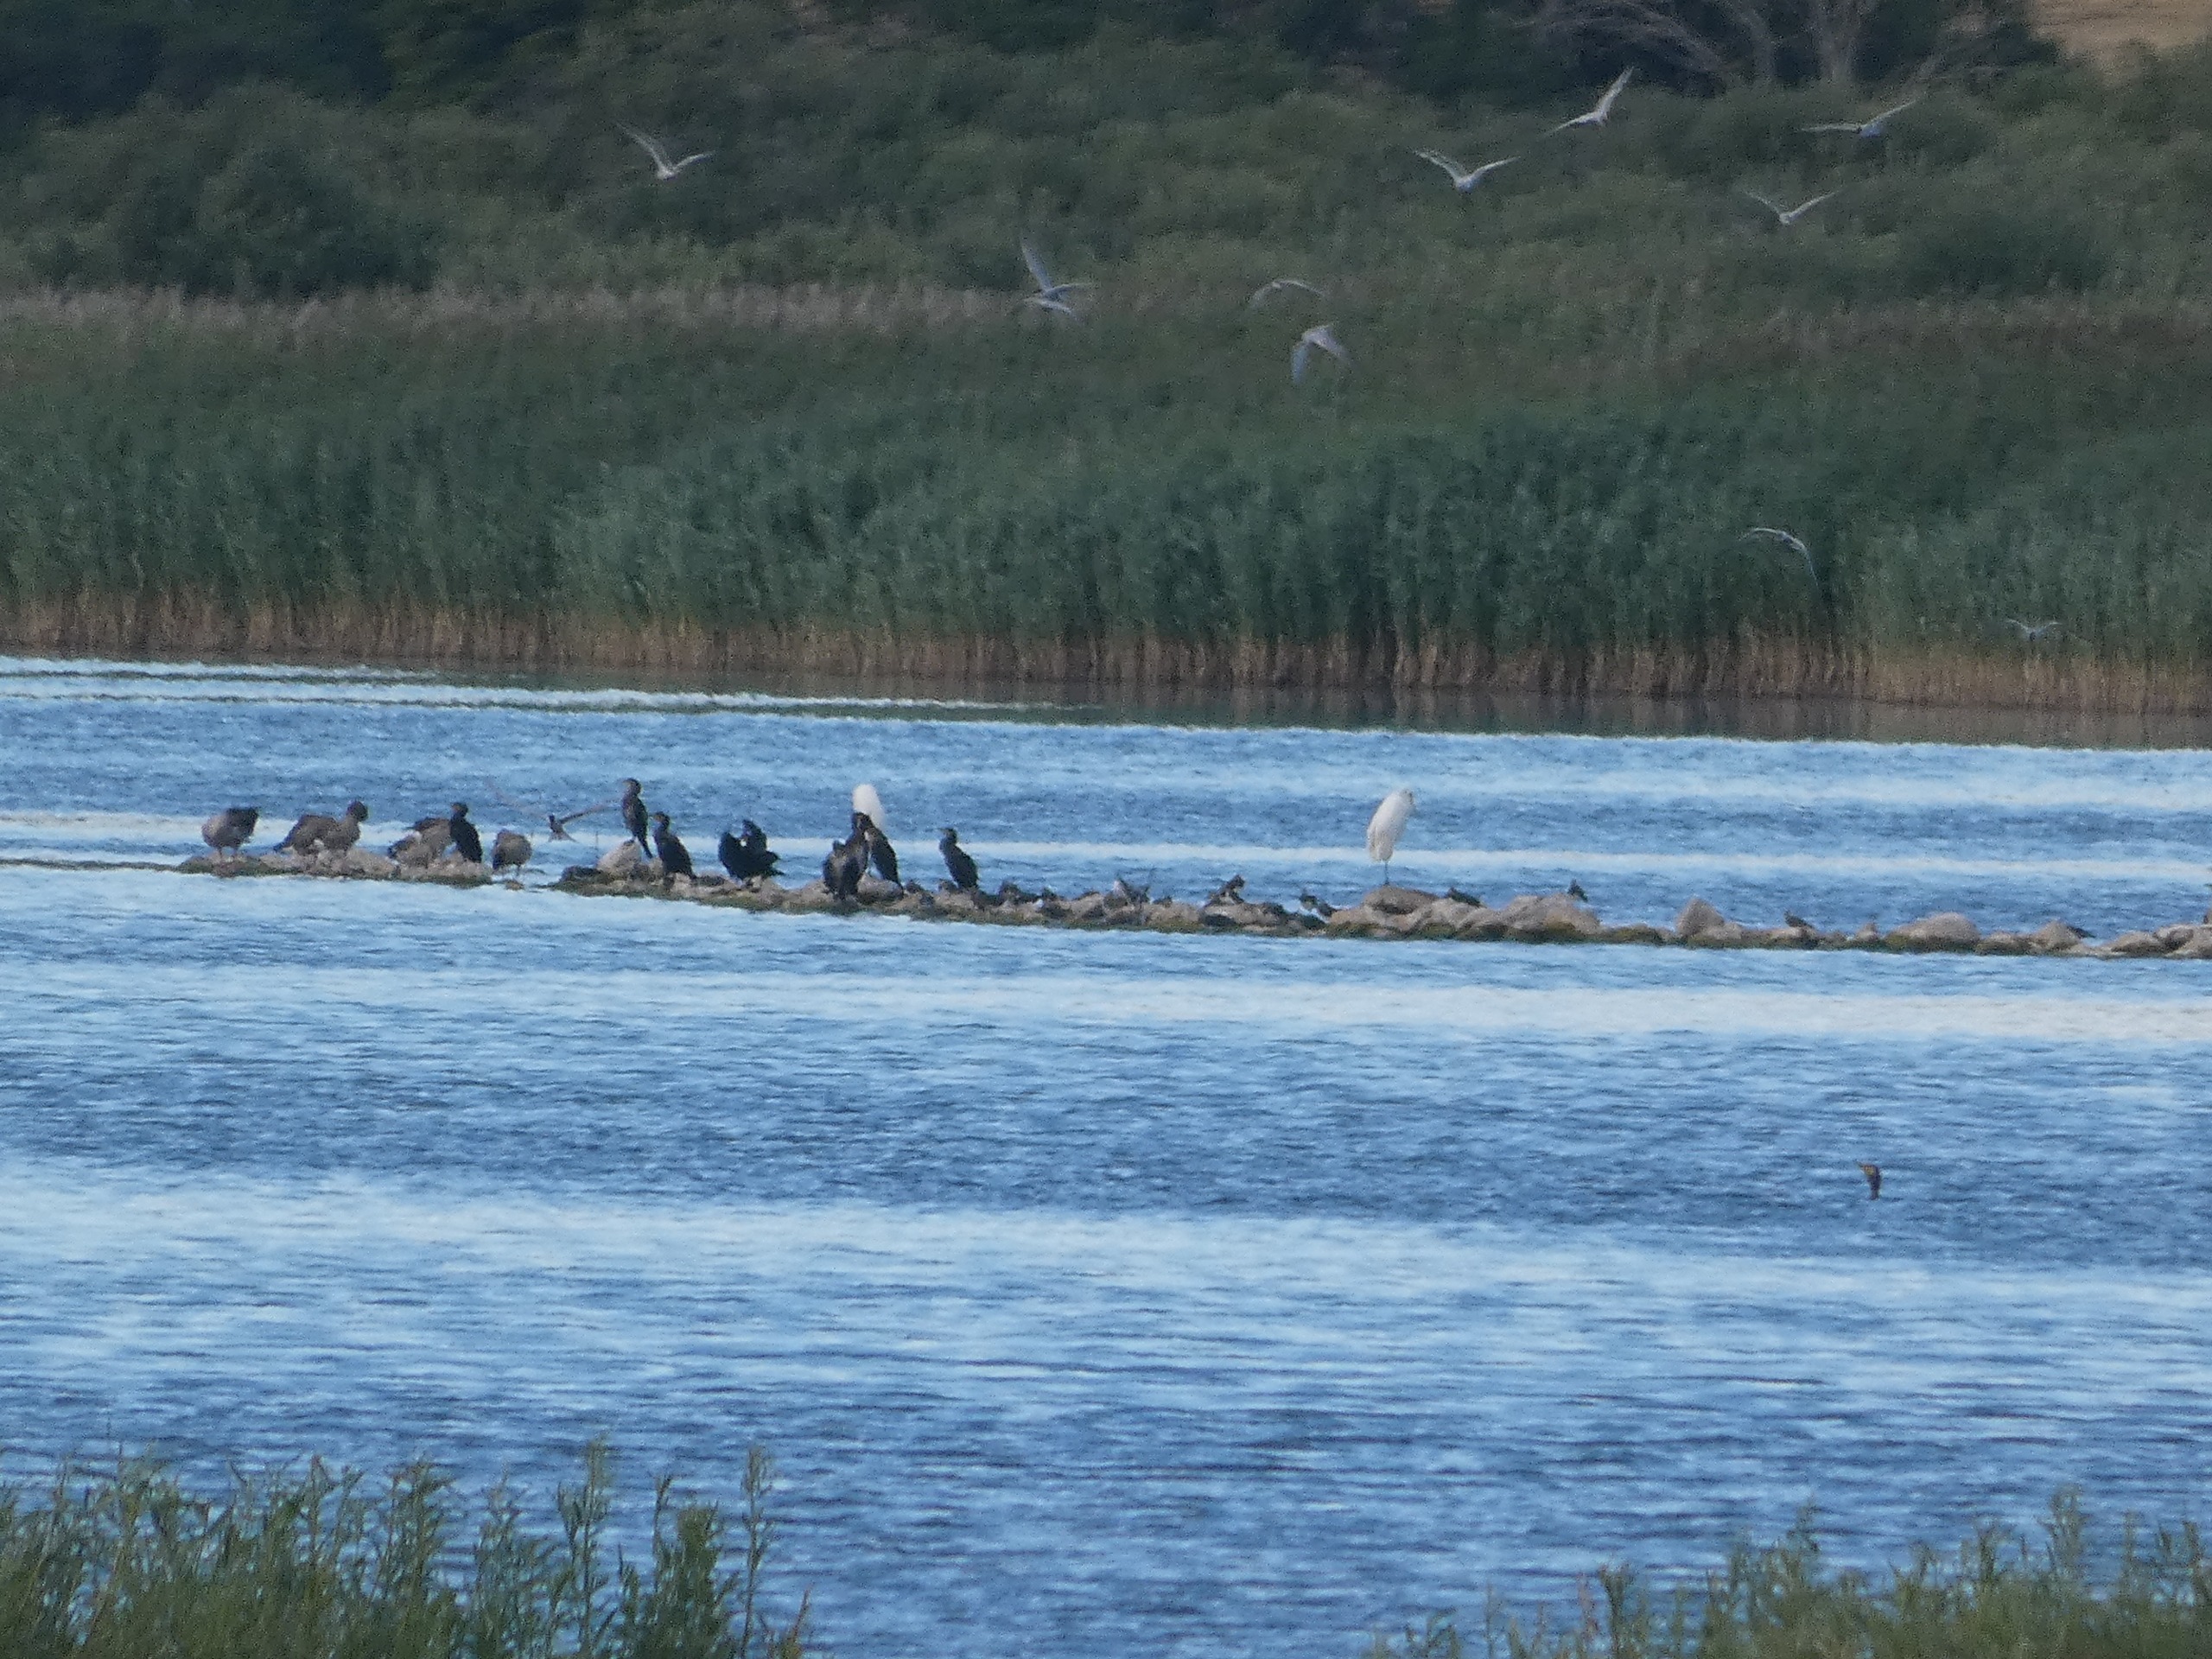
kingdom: Animalia
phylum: Chordata
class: Aves
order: Pelecaniformes
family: Ardeidae
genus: Ardea
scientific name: Ardea alba
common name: Sølvhejre
